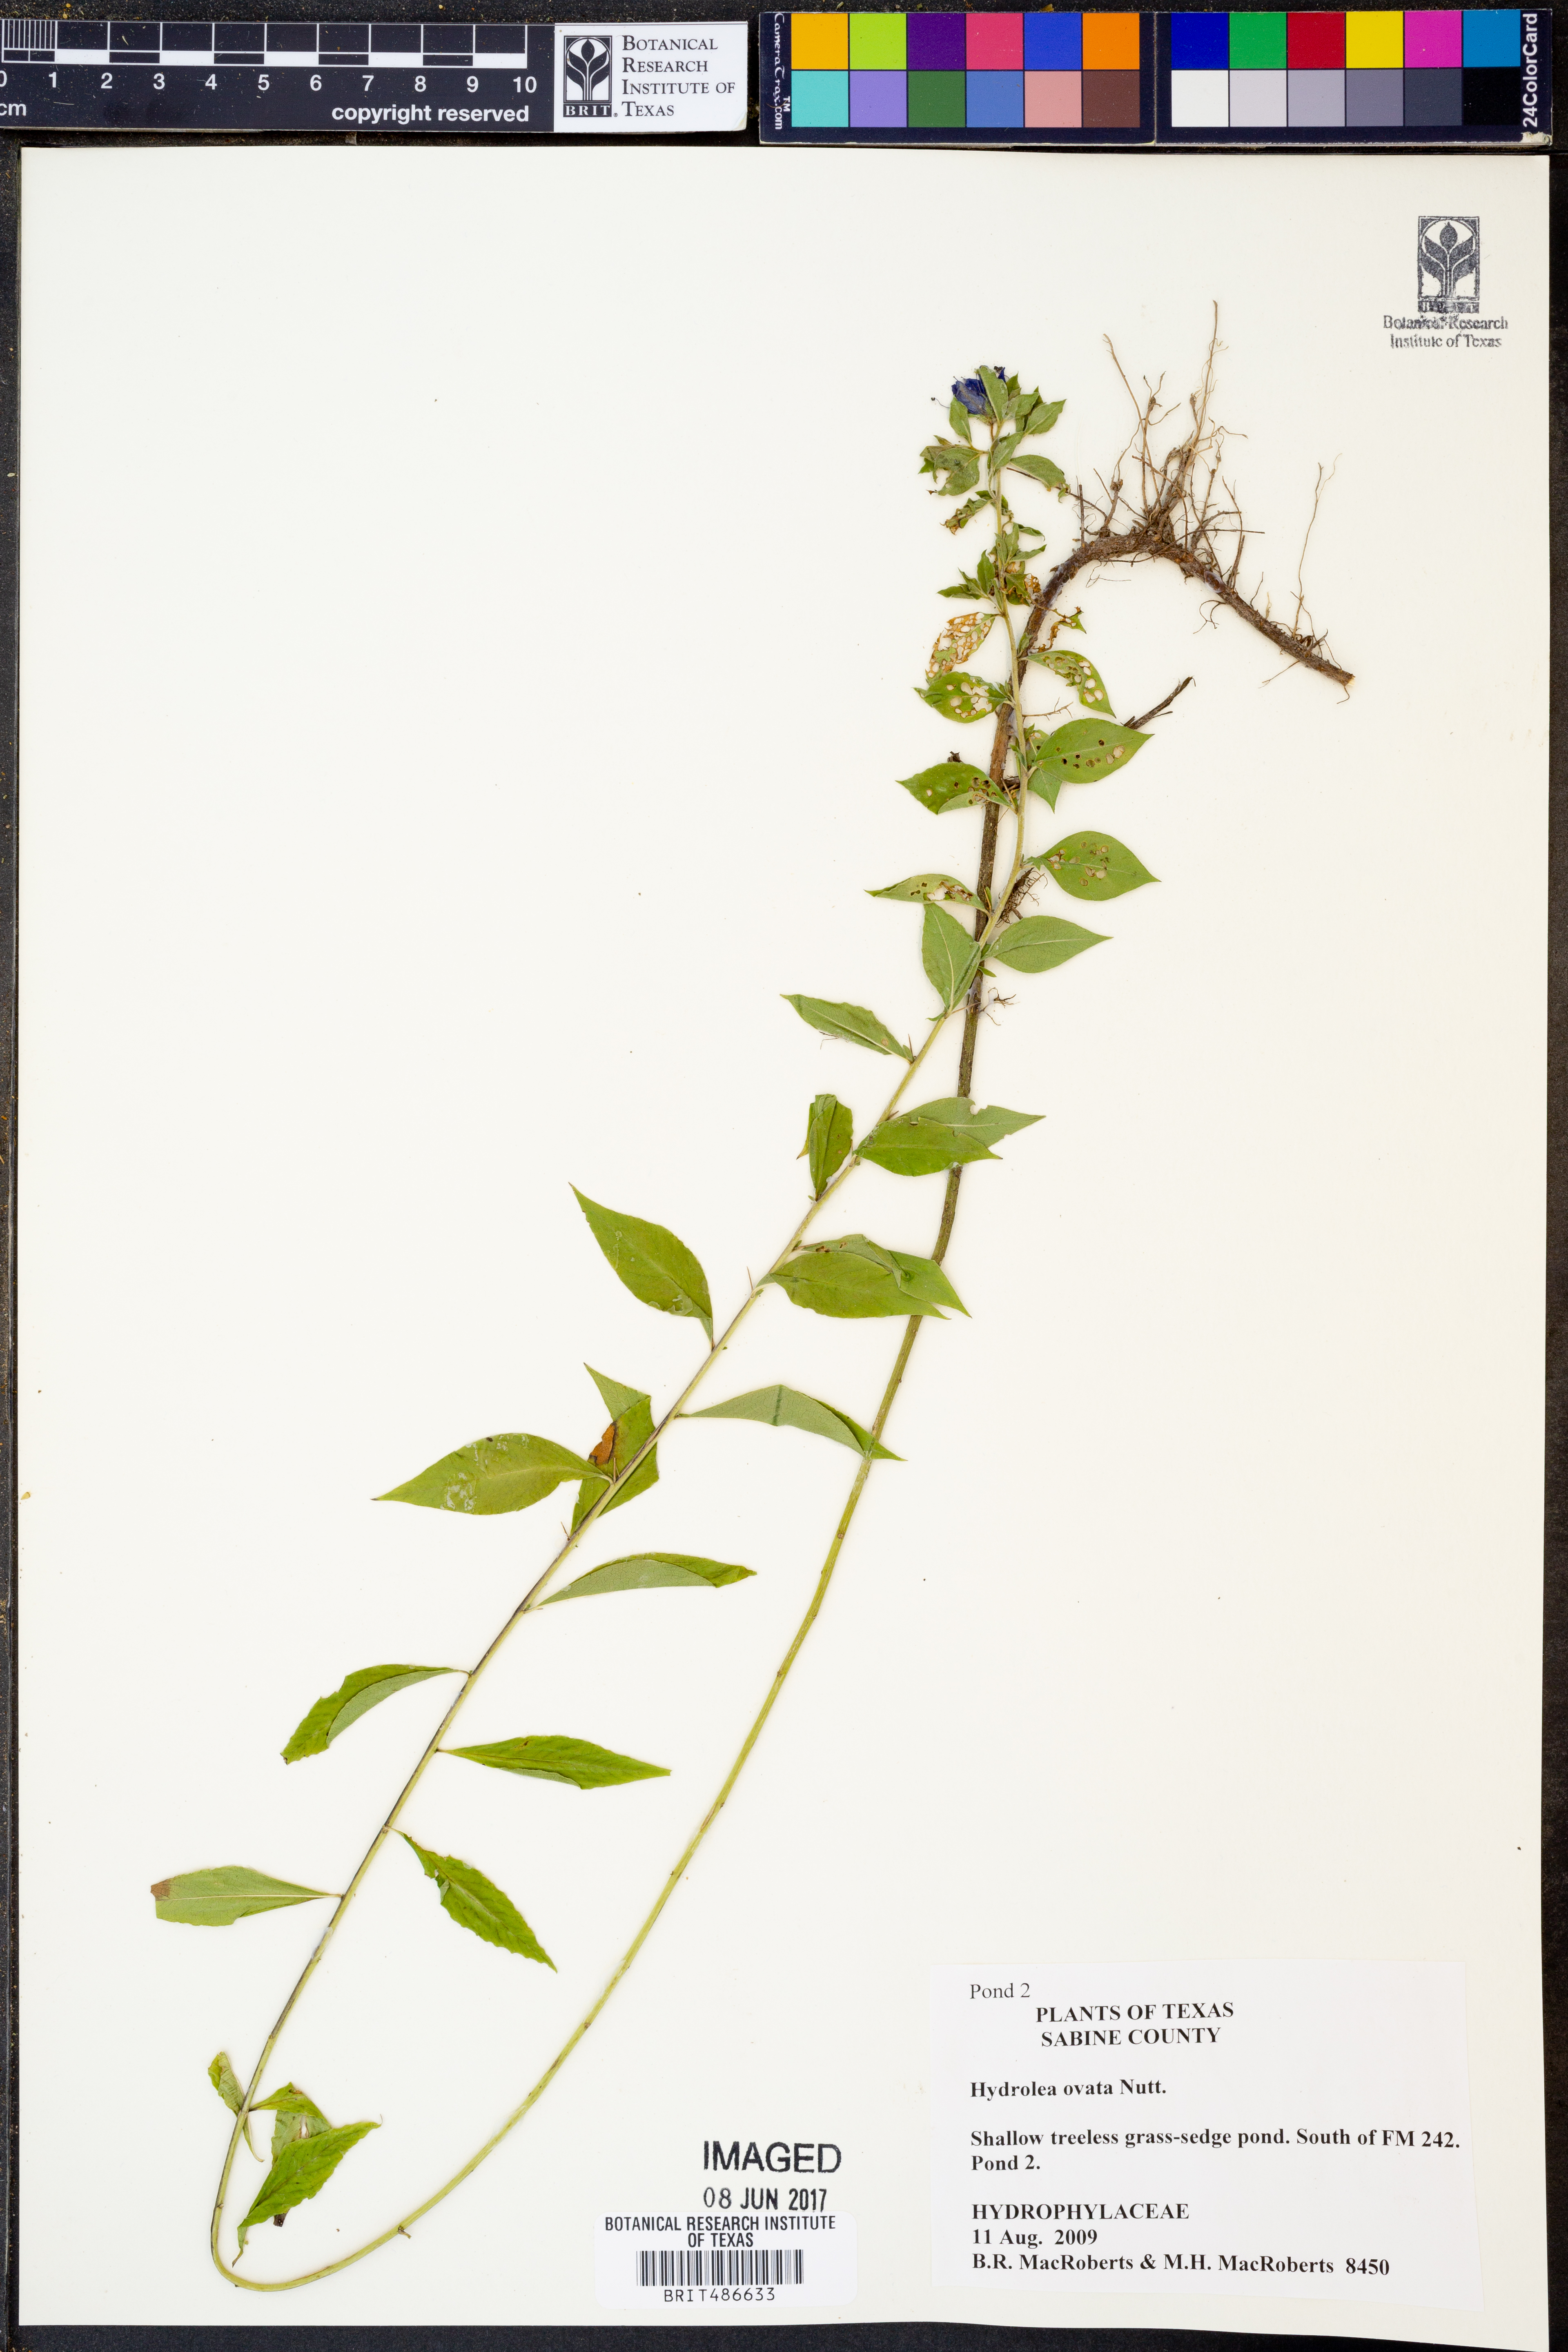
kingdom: Plantae
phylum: Tracheophyta
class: Magnoliopsida
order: Solanales
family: Hydroleaceae
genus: Hydrolea
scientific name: Hydrolea ovata
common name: Ovate false fiddleleaf
